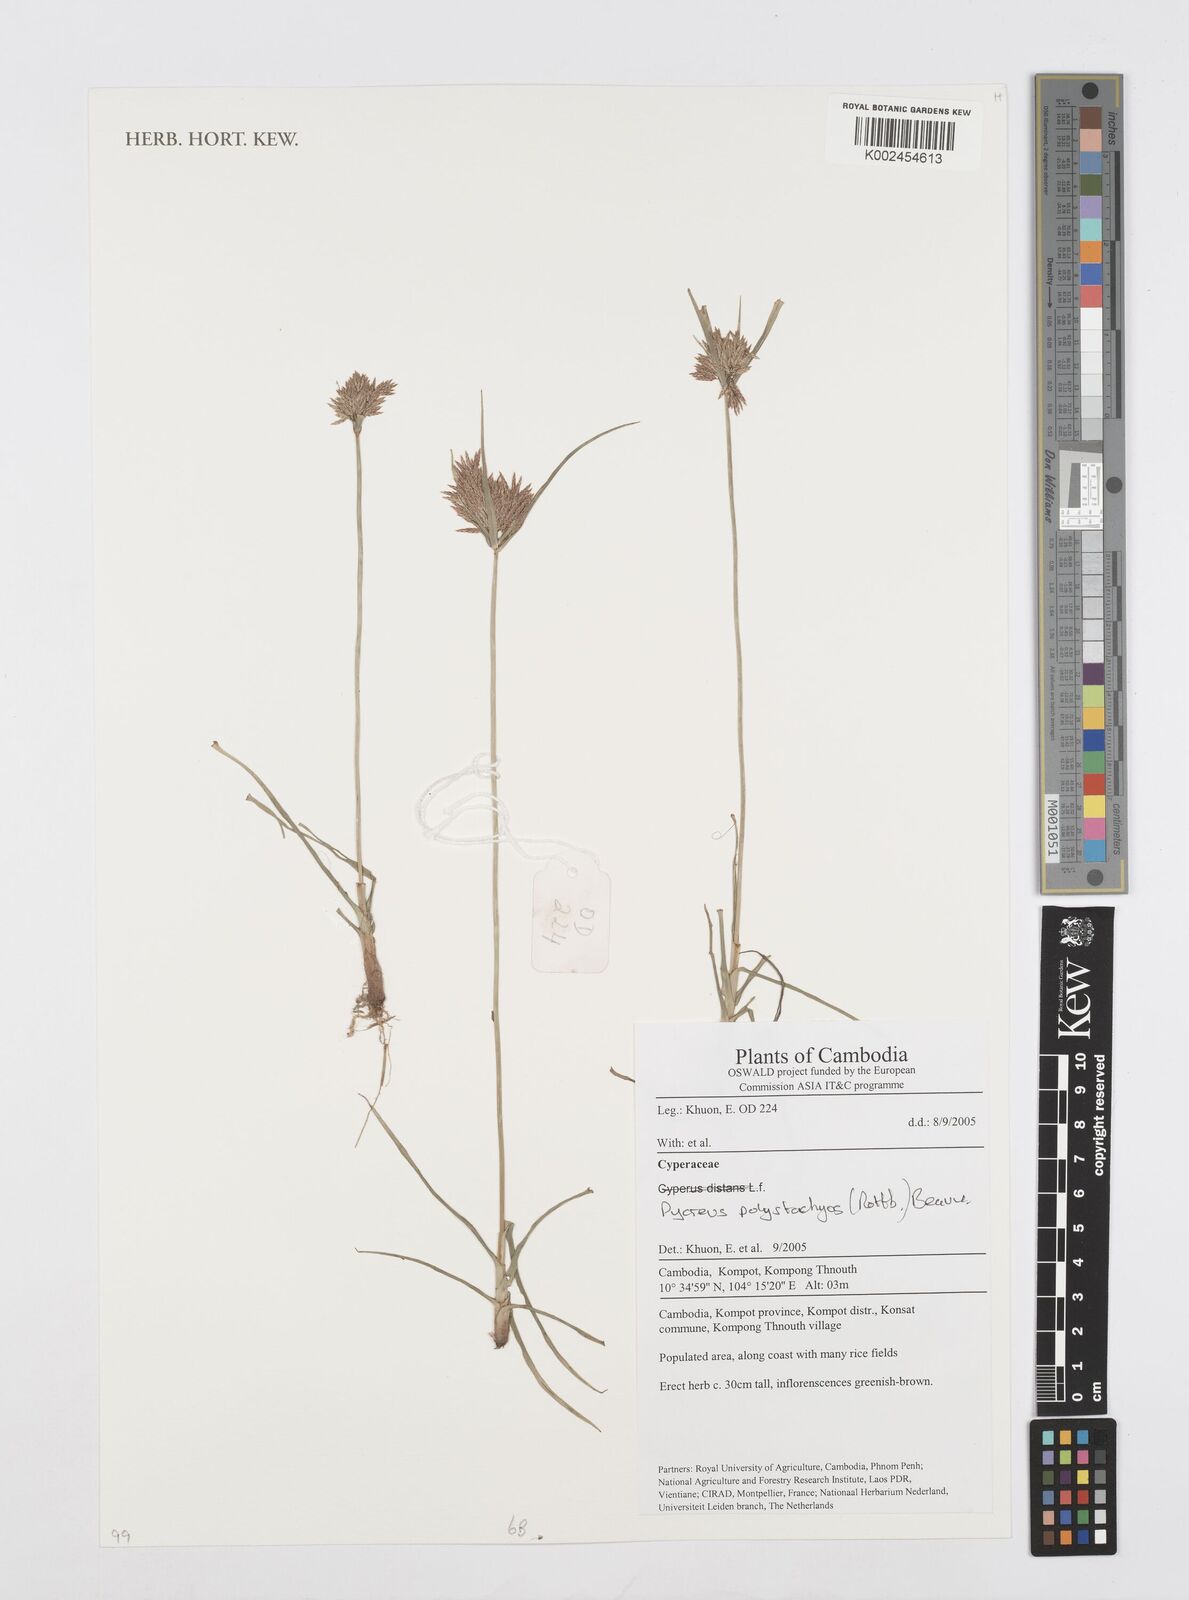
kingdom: Plantae
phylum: Tracheophyta
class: Liliopsida
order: Poales
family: Cyperaceae
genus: Cyperus
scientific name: Cyperus polystachyos
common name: Bunchy flat sedge
